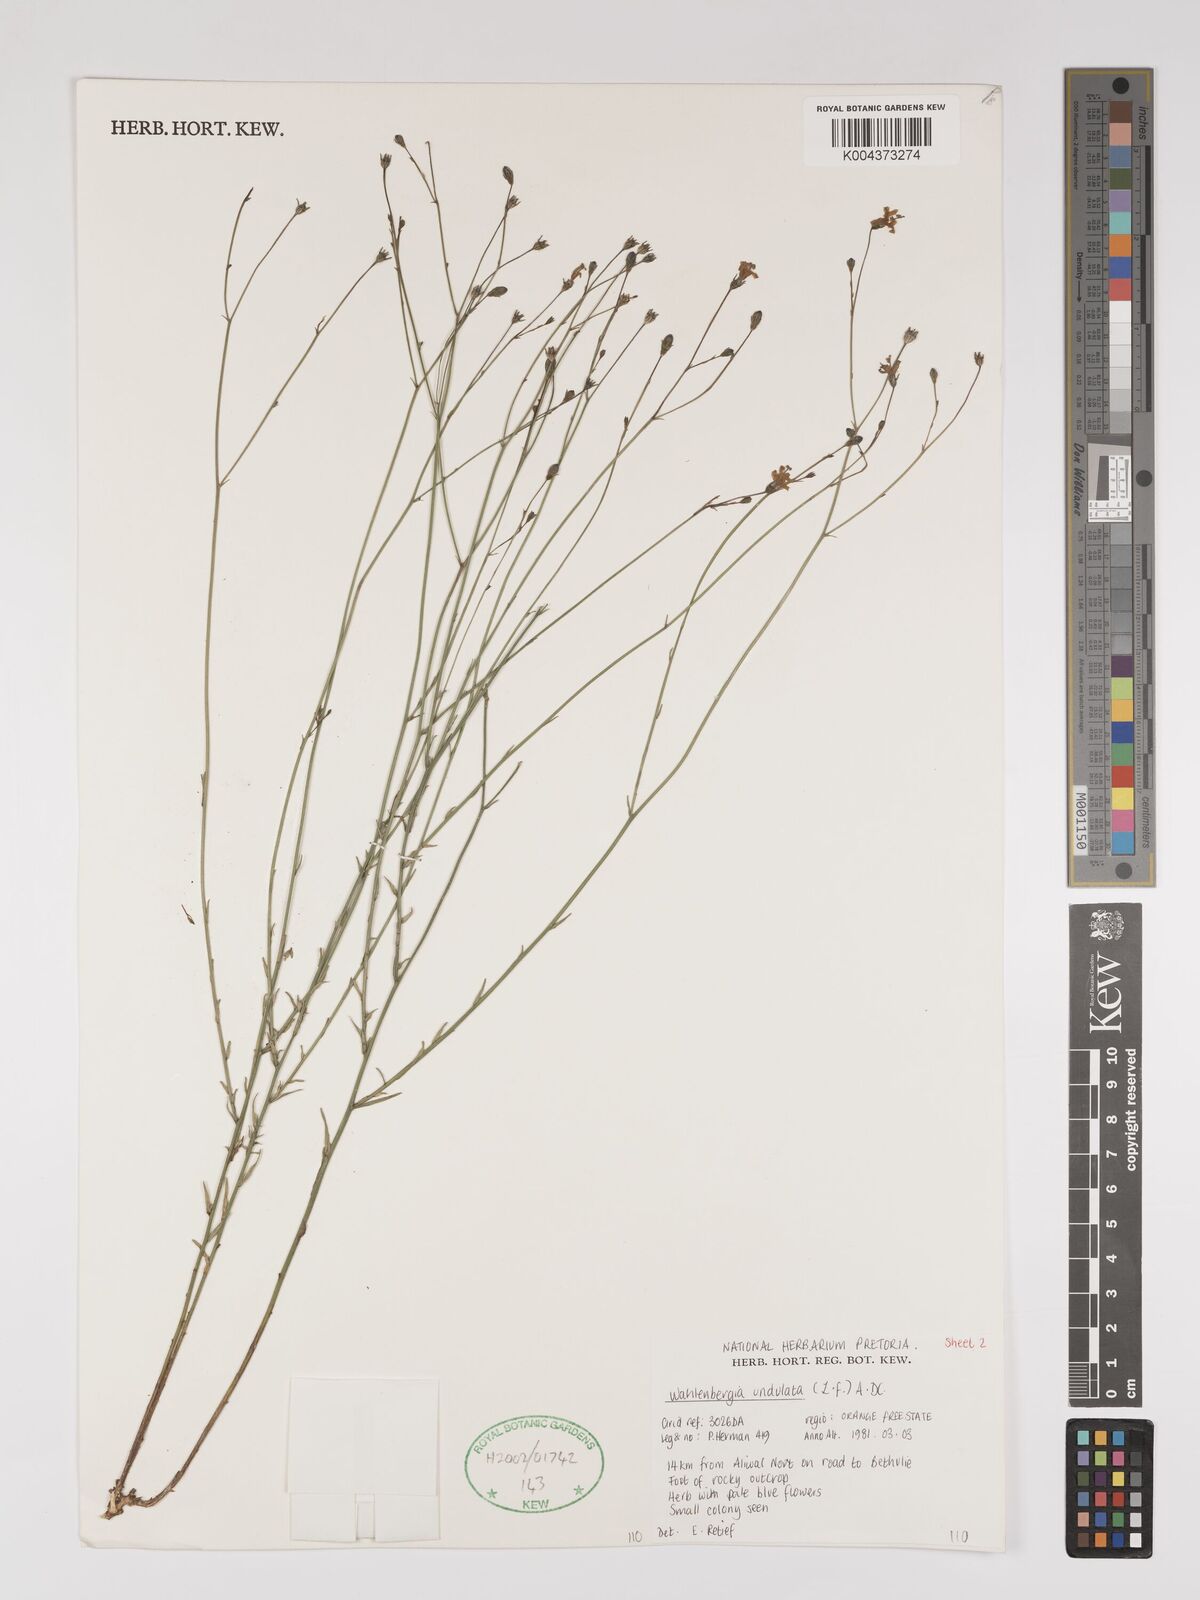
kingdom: Plantae
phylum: Tracheophyta
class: Magnoliopsida
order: Asterales
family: Campanulaceae
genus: Wahlenbergia
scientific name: Wahlenbergia undulata
